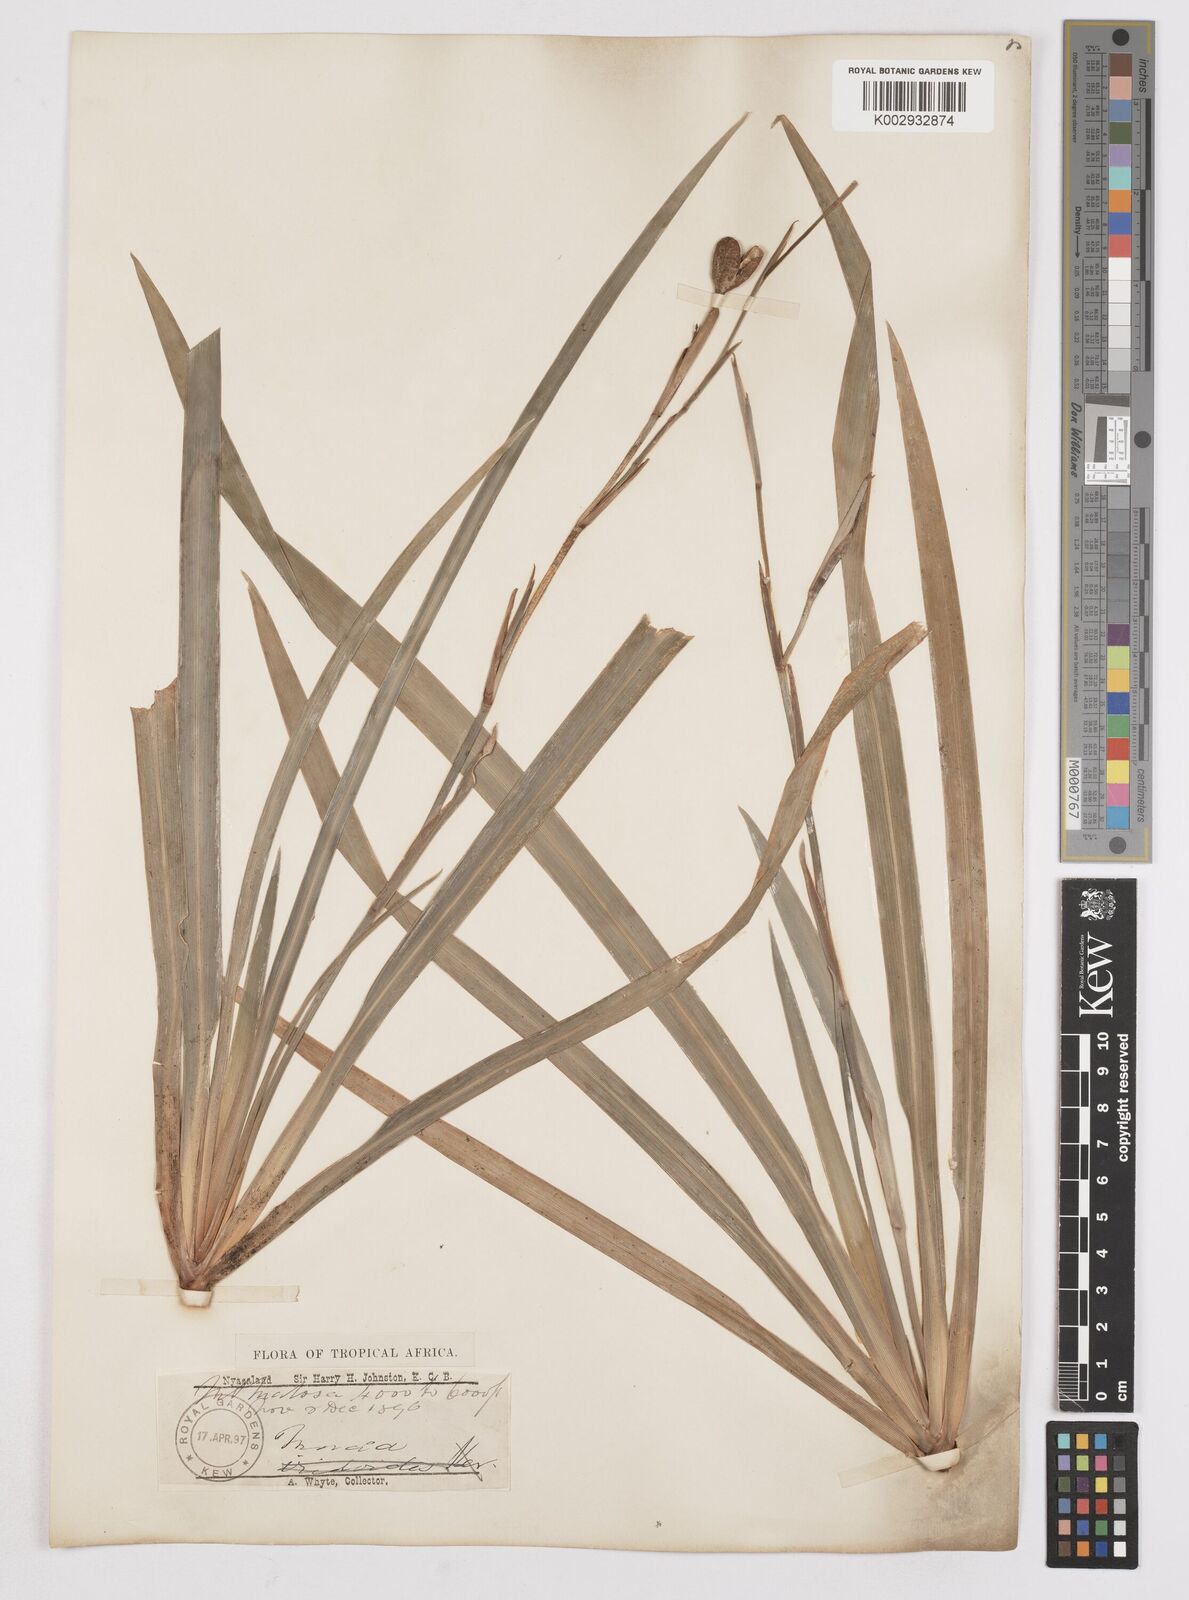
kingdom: Plantae
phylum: Tracheophyta
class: Liliopsida
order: Asparagales
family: Iridaceae
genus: Dietes
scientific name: Dietes iridioides
